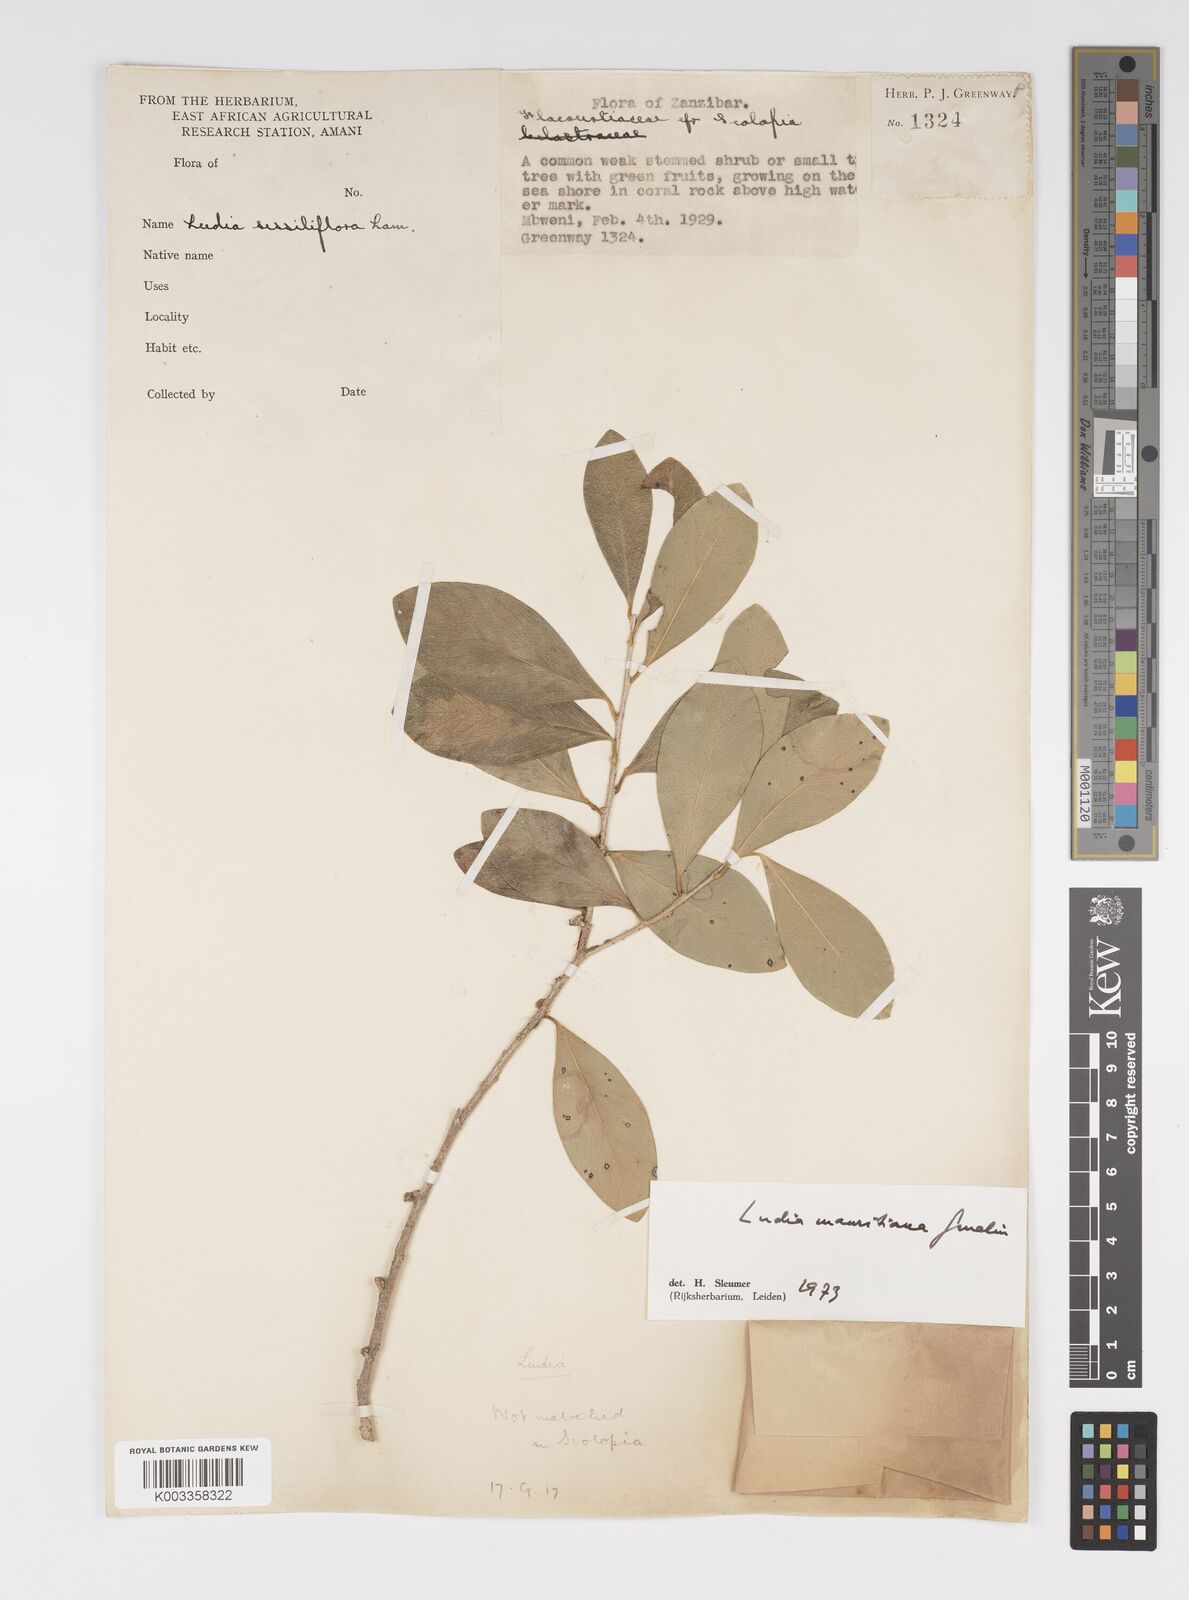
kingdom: Plantae
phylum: Tracheophyta
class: Magnoliopsida
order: Malpighiales
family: Salicaceae
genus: Ludia
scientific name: Ludia mauritiana
